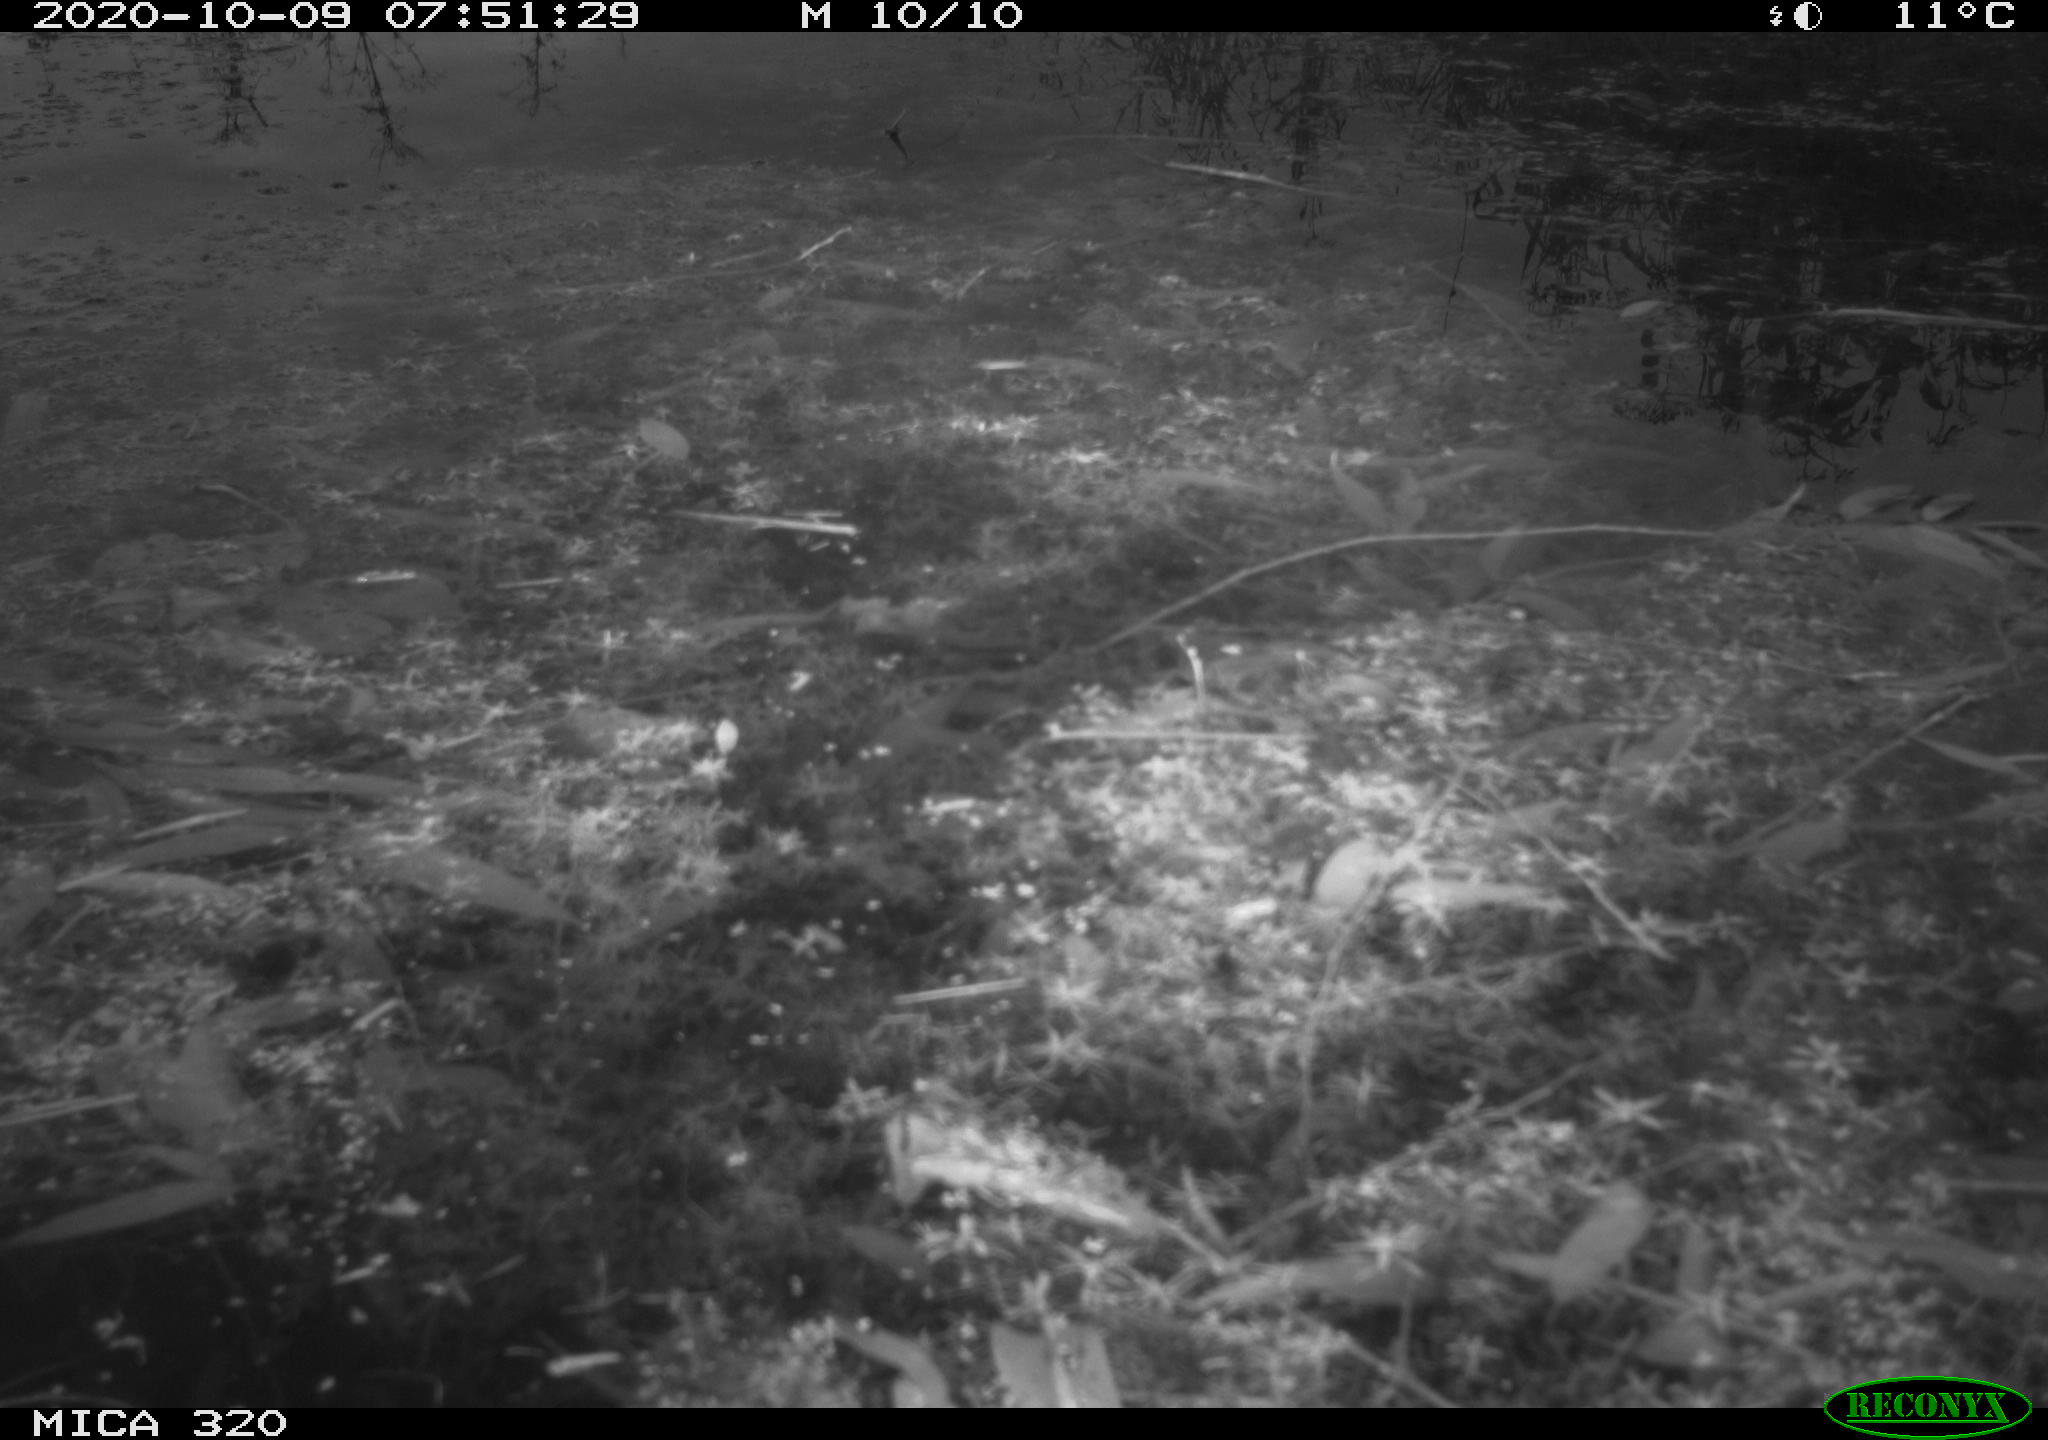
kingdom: Animalia
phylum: Chordata
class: Aves
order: Gruiformes
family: Rallidae
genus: Gallinula
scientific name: Gallinula chloropus
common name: Common moorhen
